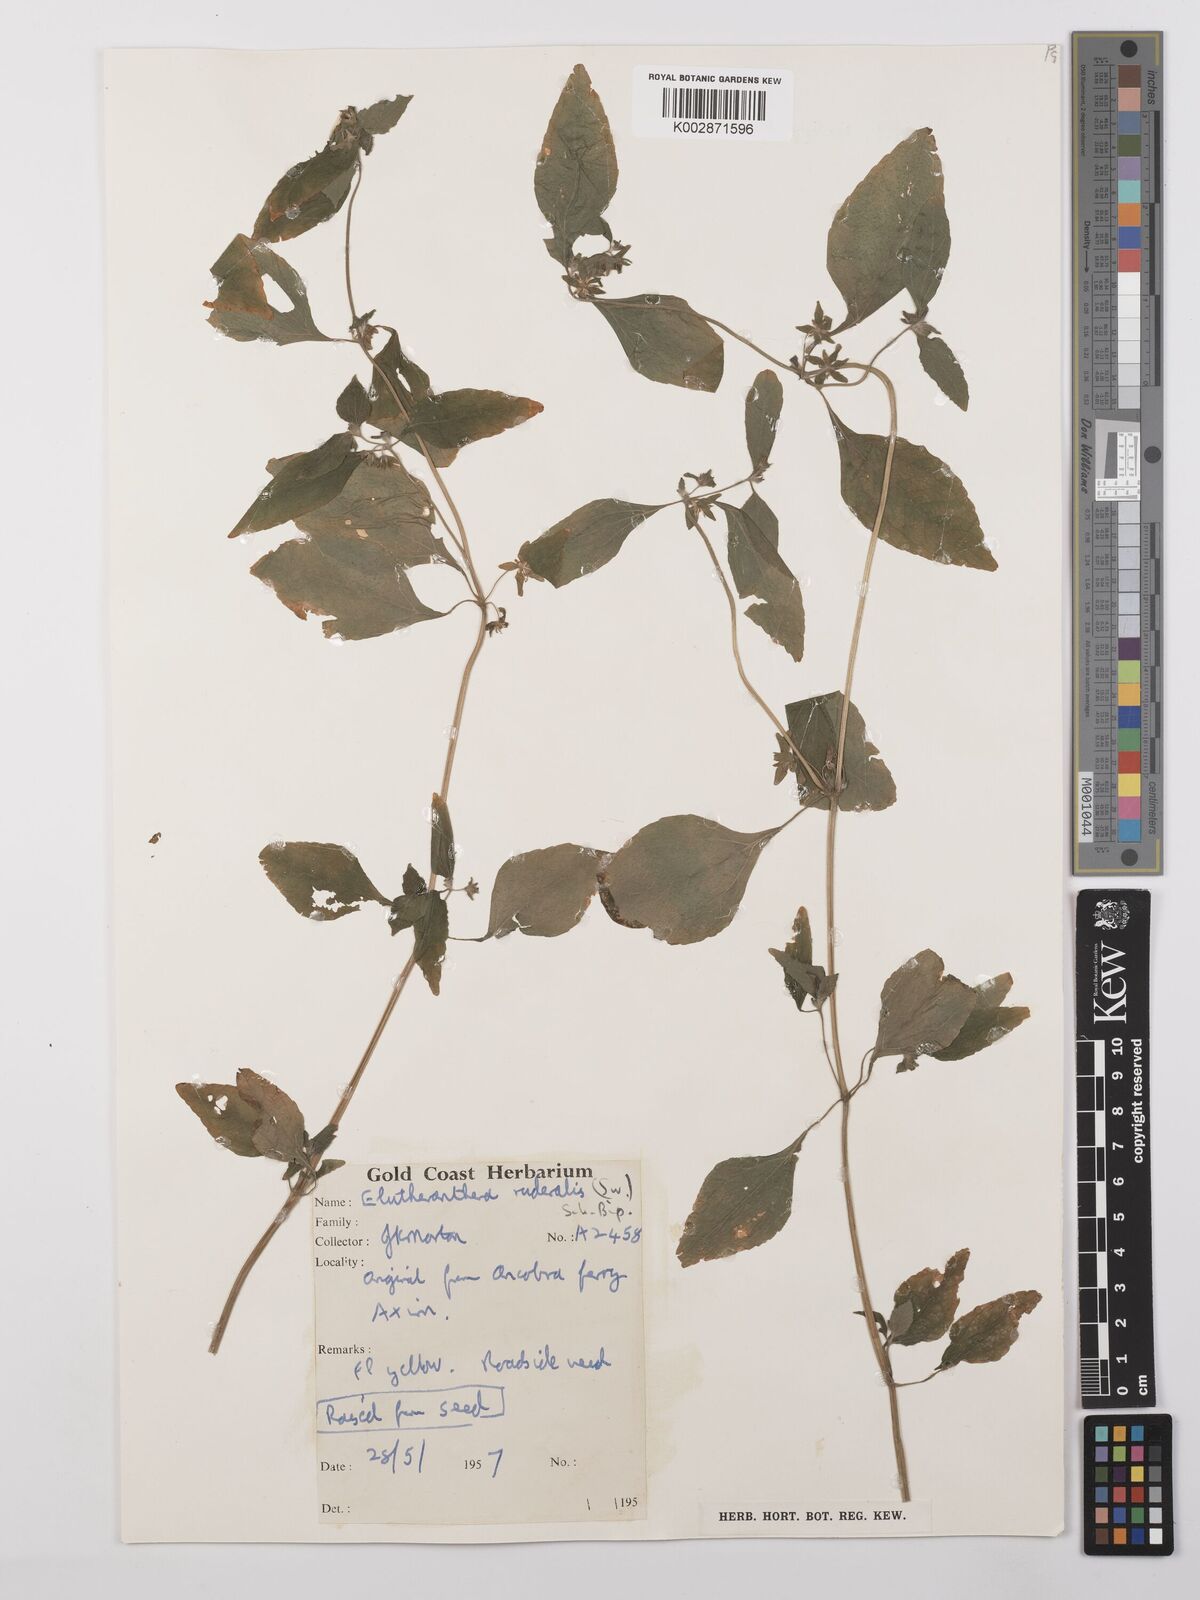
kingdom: Plantae
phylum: Tracheophyta
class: Magnoliopsida
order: Asterales
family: Asteraceae
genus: Eleutheranthera
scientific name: Eleutheranthera ruderalis
